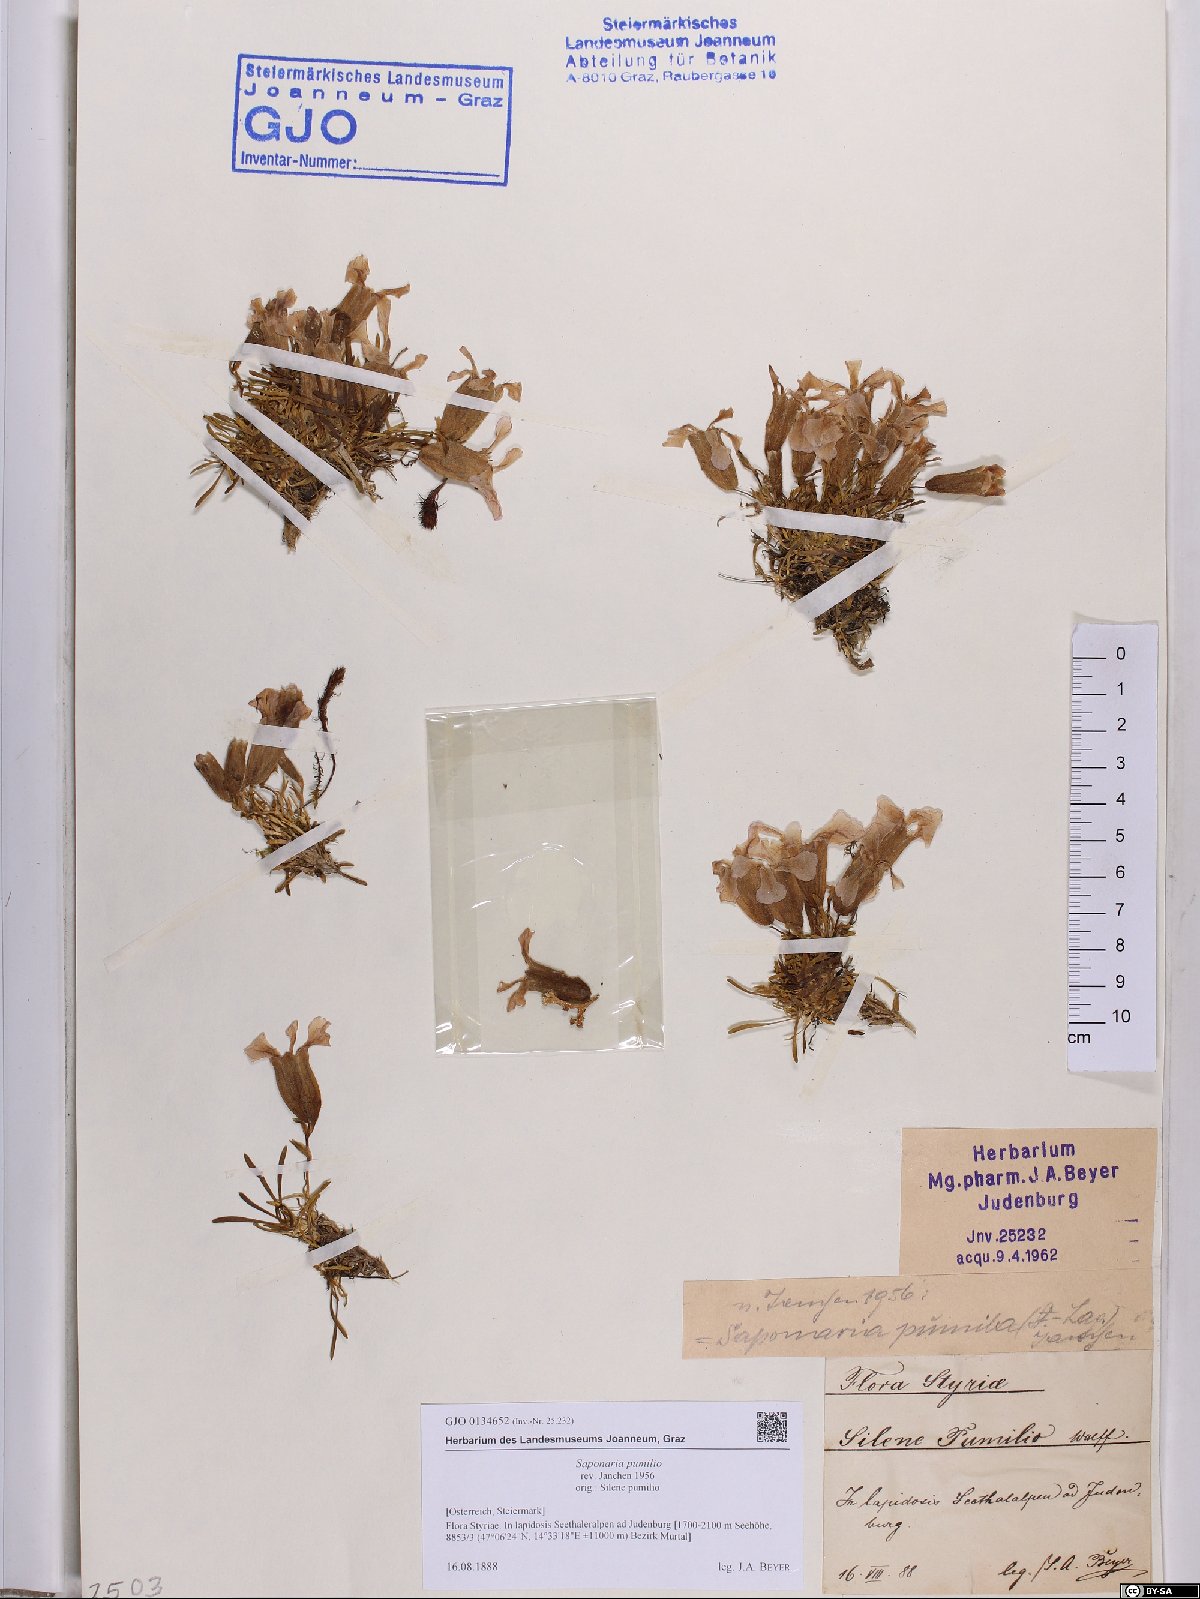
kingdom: Plantae
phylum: Tracheophyta
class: Magnoliopsida
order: Caryophyllales
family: Caryophyllaceae
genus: Saponaria
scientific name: Saponaria pumila
